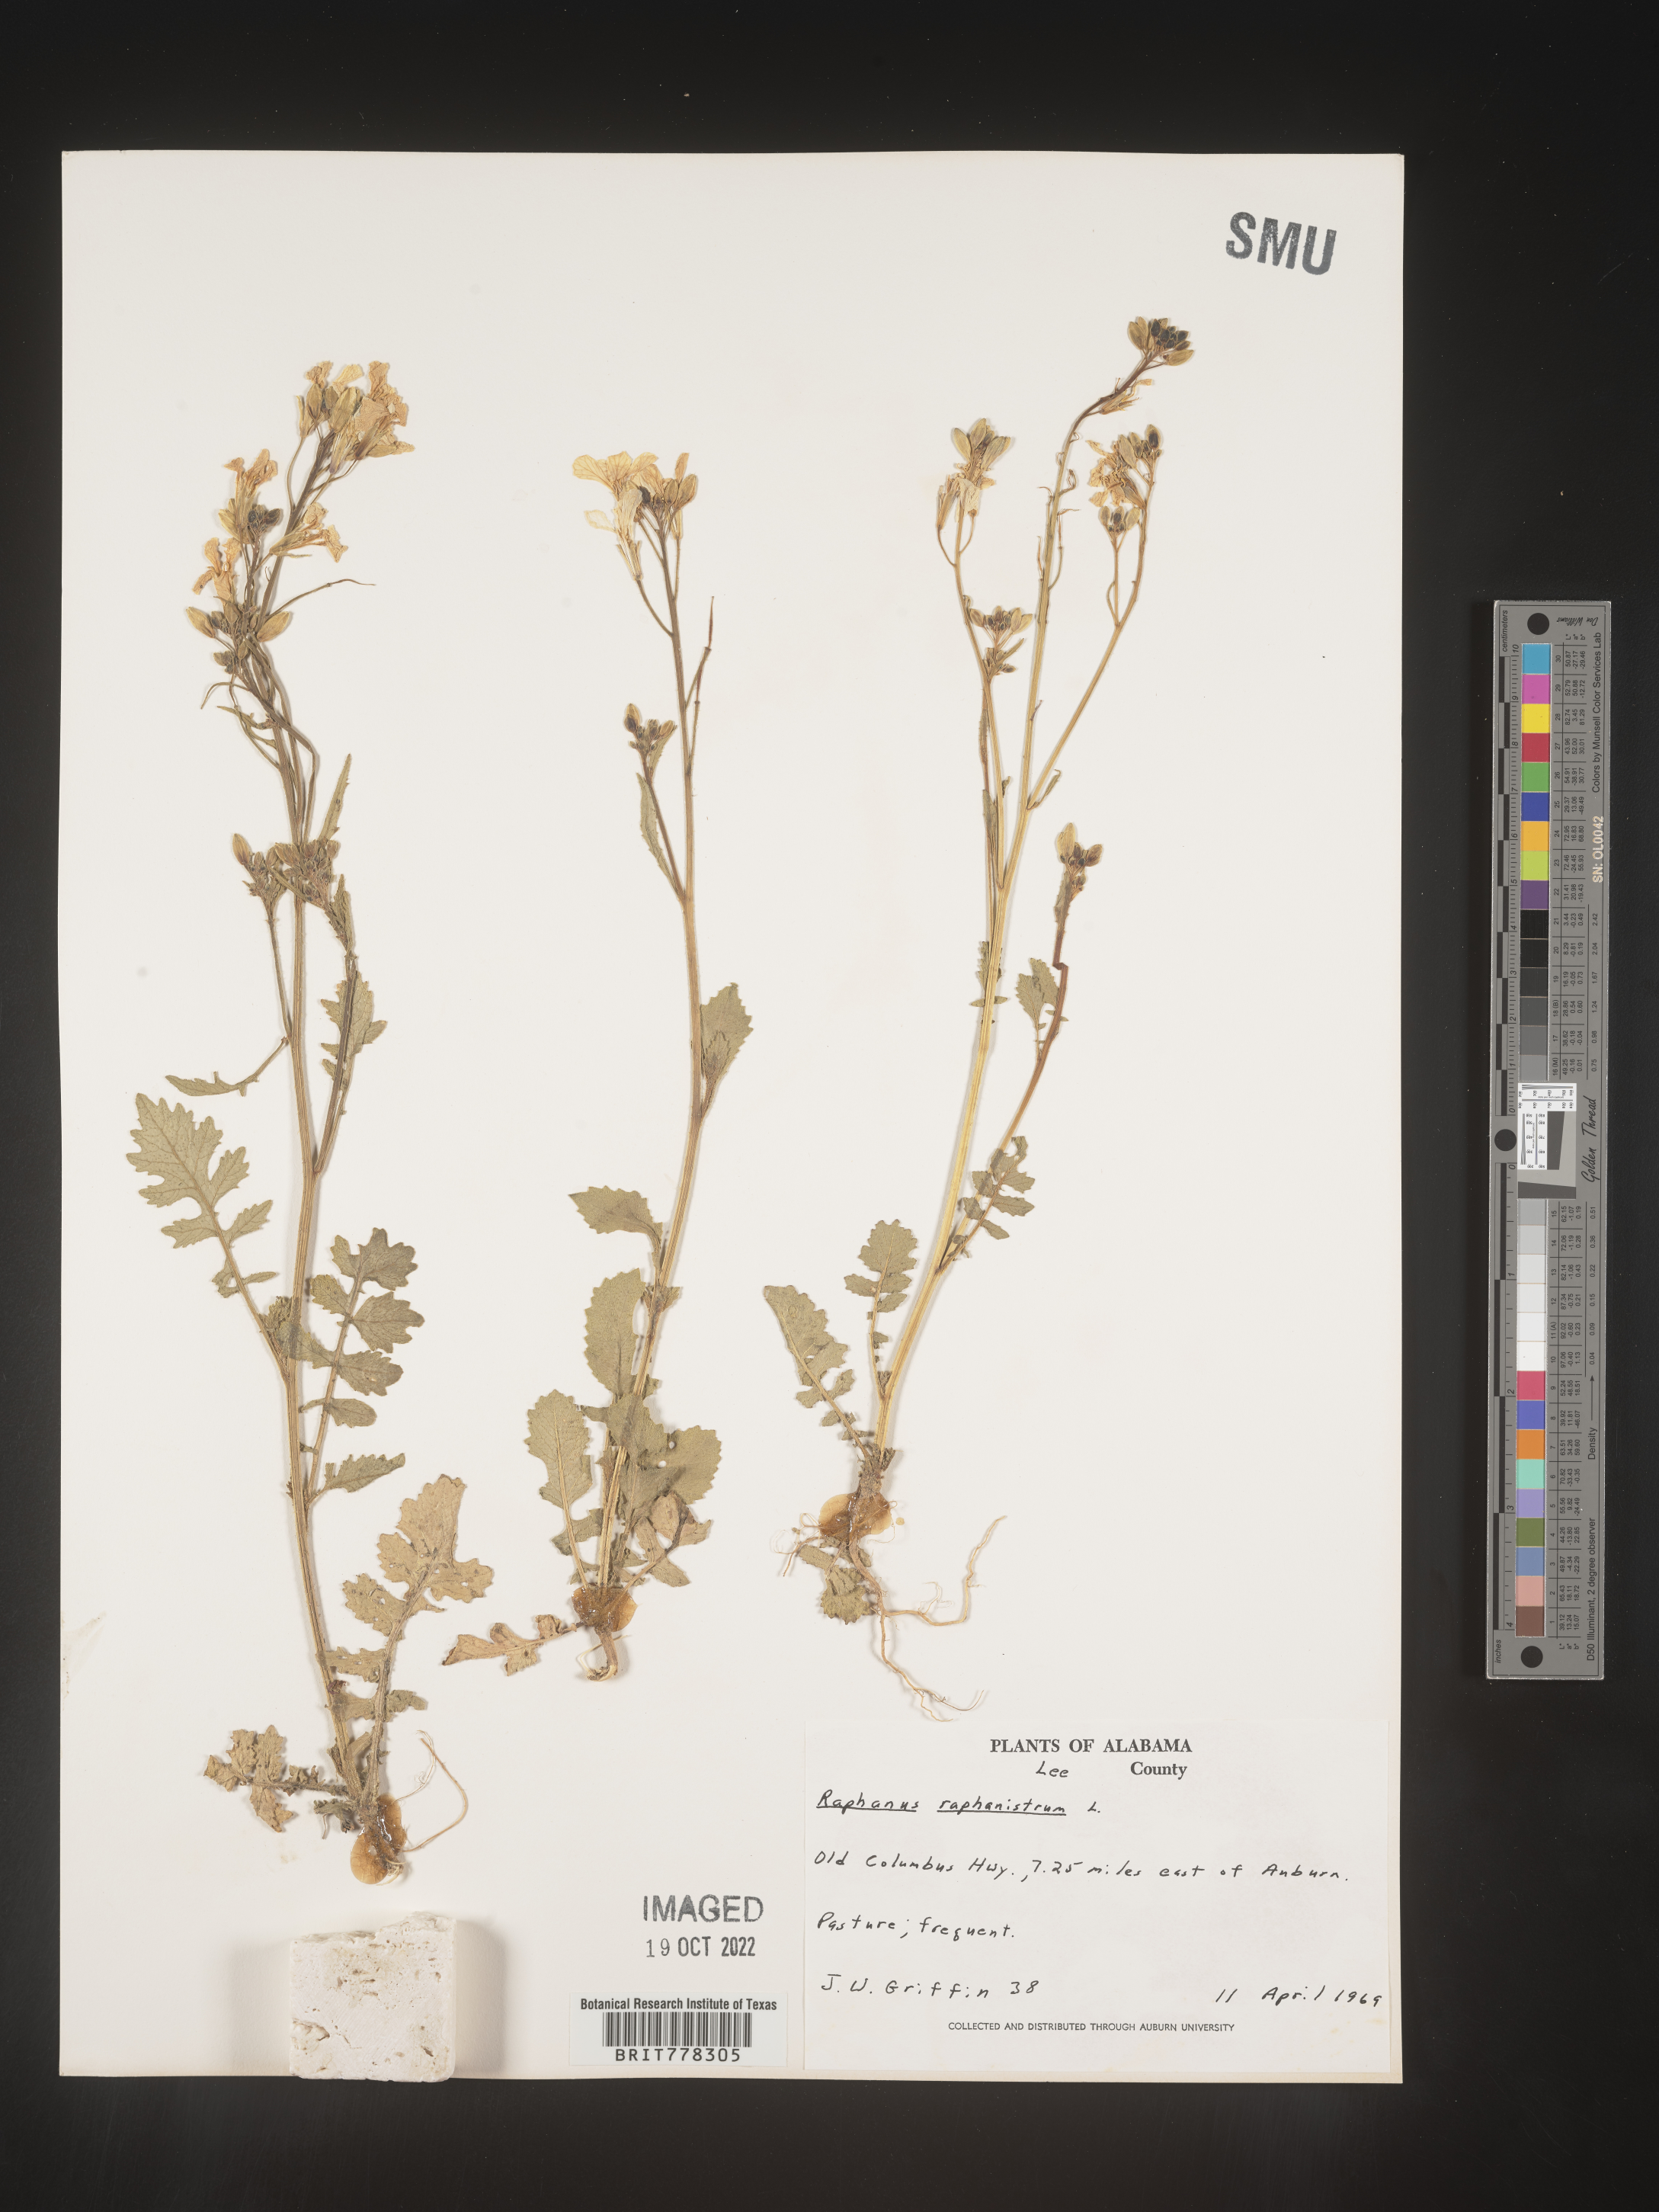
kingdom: Plantae
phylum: Tracheophyta
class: Magnoliopsida
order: Brassicales
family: Brassicaceae
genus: Raphanus
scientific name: Raphanus raphanistrum
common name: Wild radish
